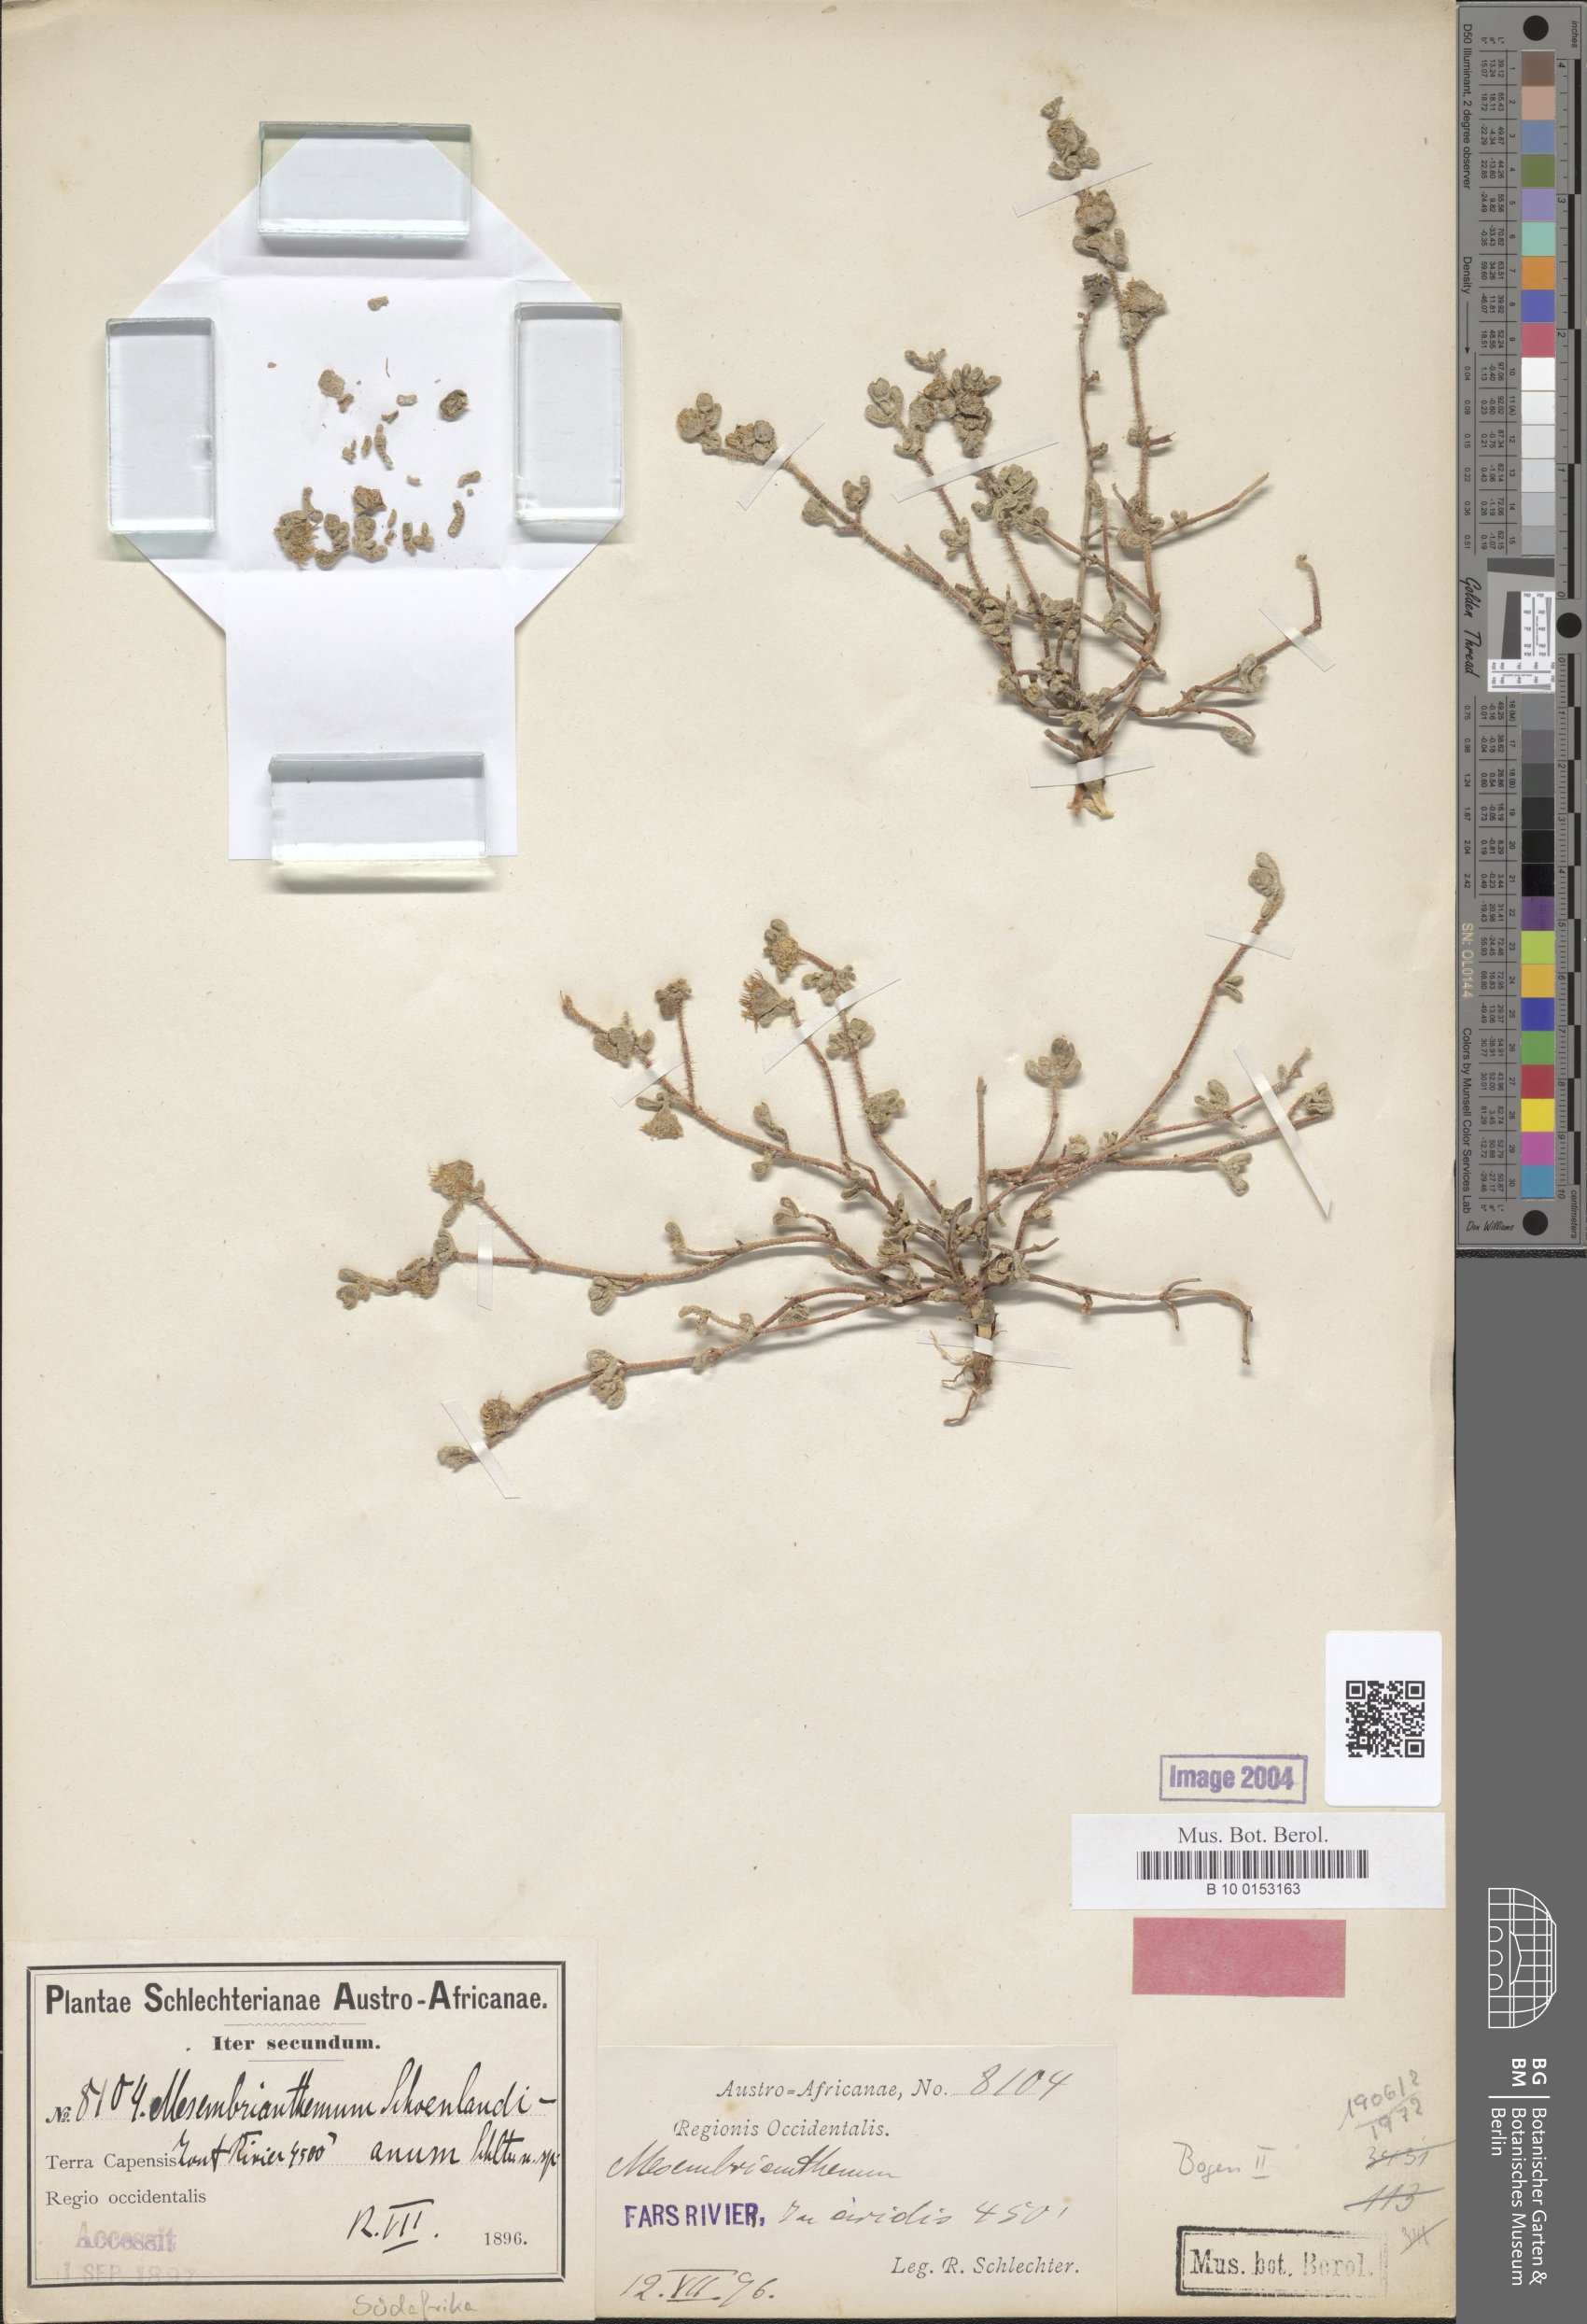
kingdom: Plantae
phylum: Tracheophyta
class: Magnoliopsida
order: Caryophyllales
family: Aizoaceae
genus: Drosanthemum
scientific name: Drosanthemum schoenlandianum
